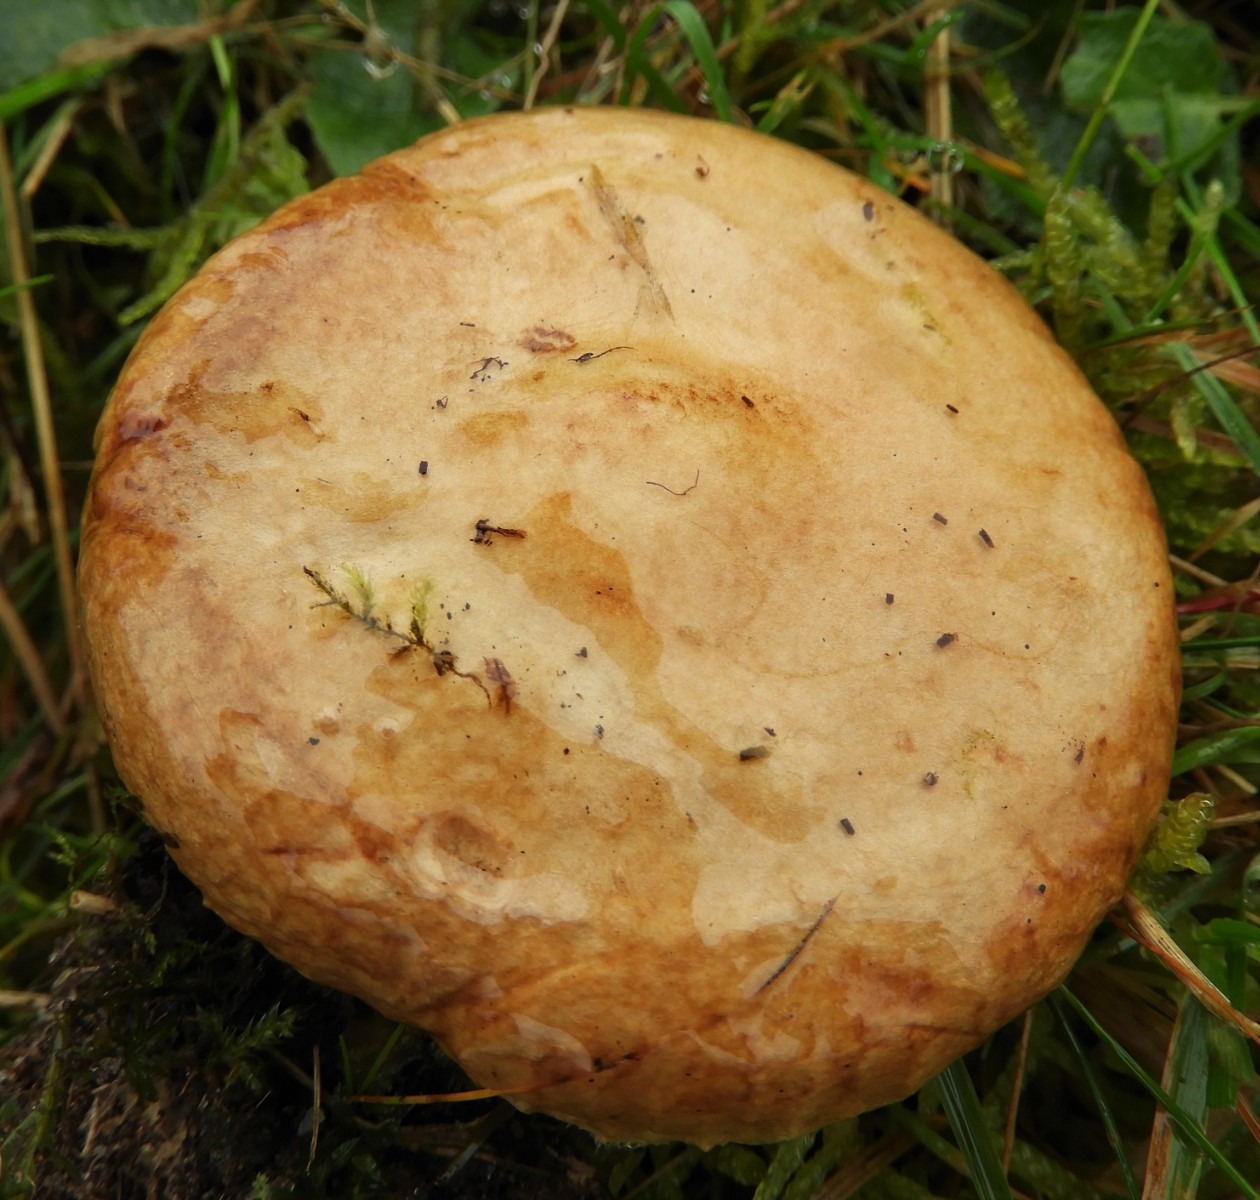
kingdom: Fungi
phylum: Basidiomycota
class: Agaricomycetes
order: Boletales
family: Paxillaceae
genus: Paxillus
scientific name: Paxillus involutus
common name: almindelig netbladhat
